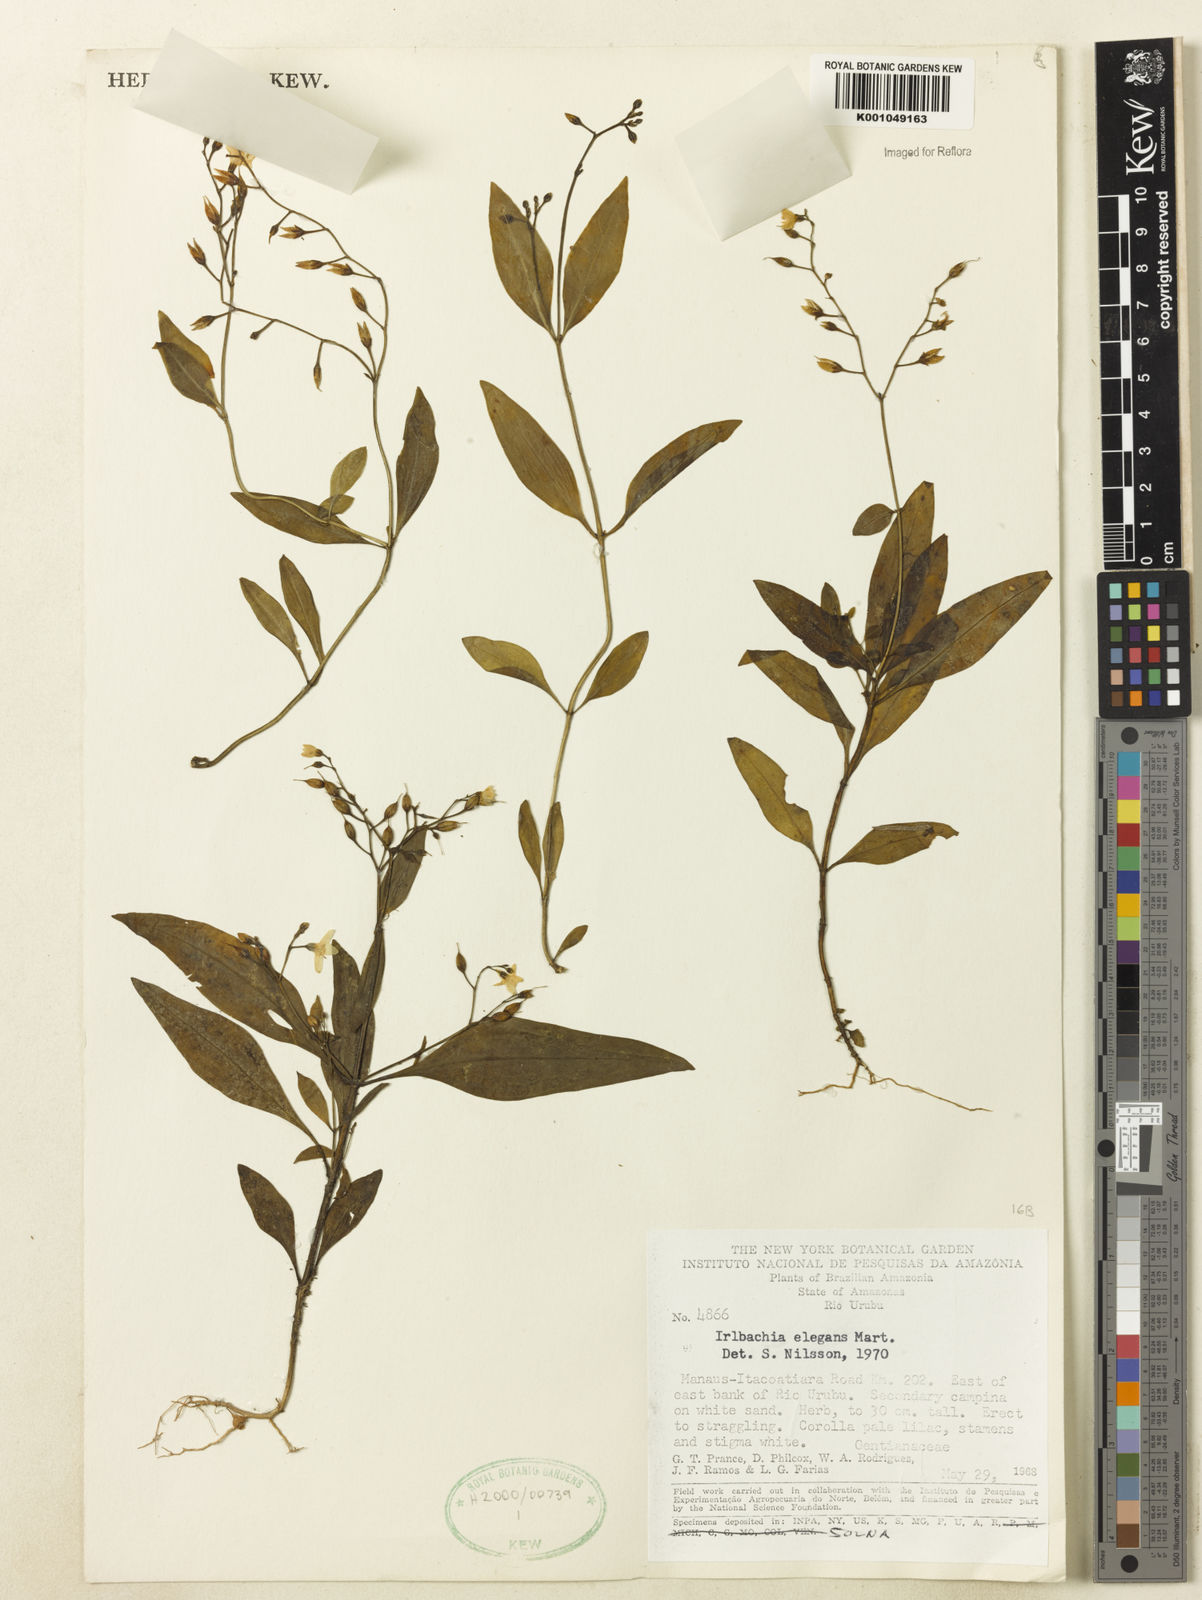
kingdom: Plantae
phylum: Tracheophyta
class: Magnoliopsida
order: Gentianales
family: Gentianaceae
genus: Irlbachia
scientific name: Irlbachia nemorosa
